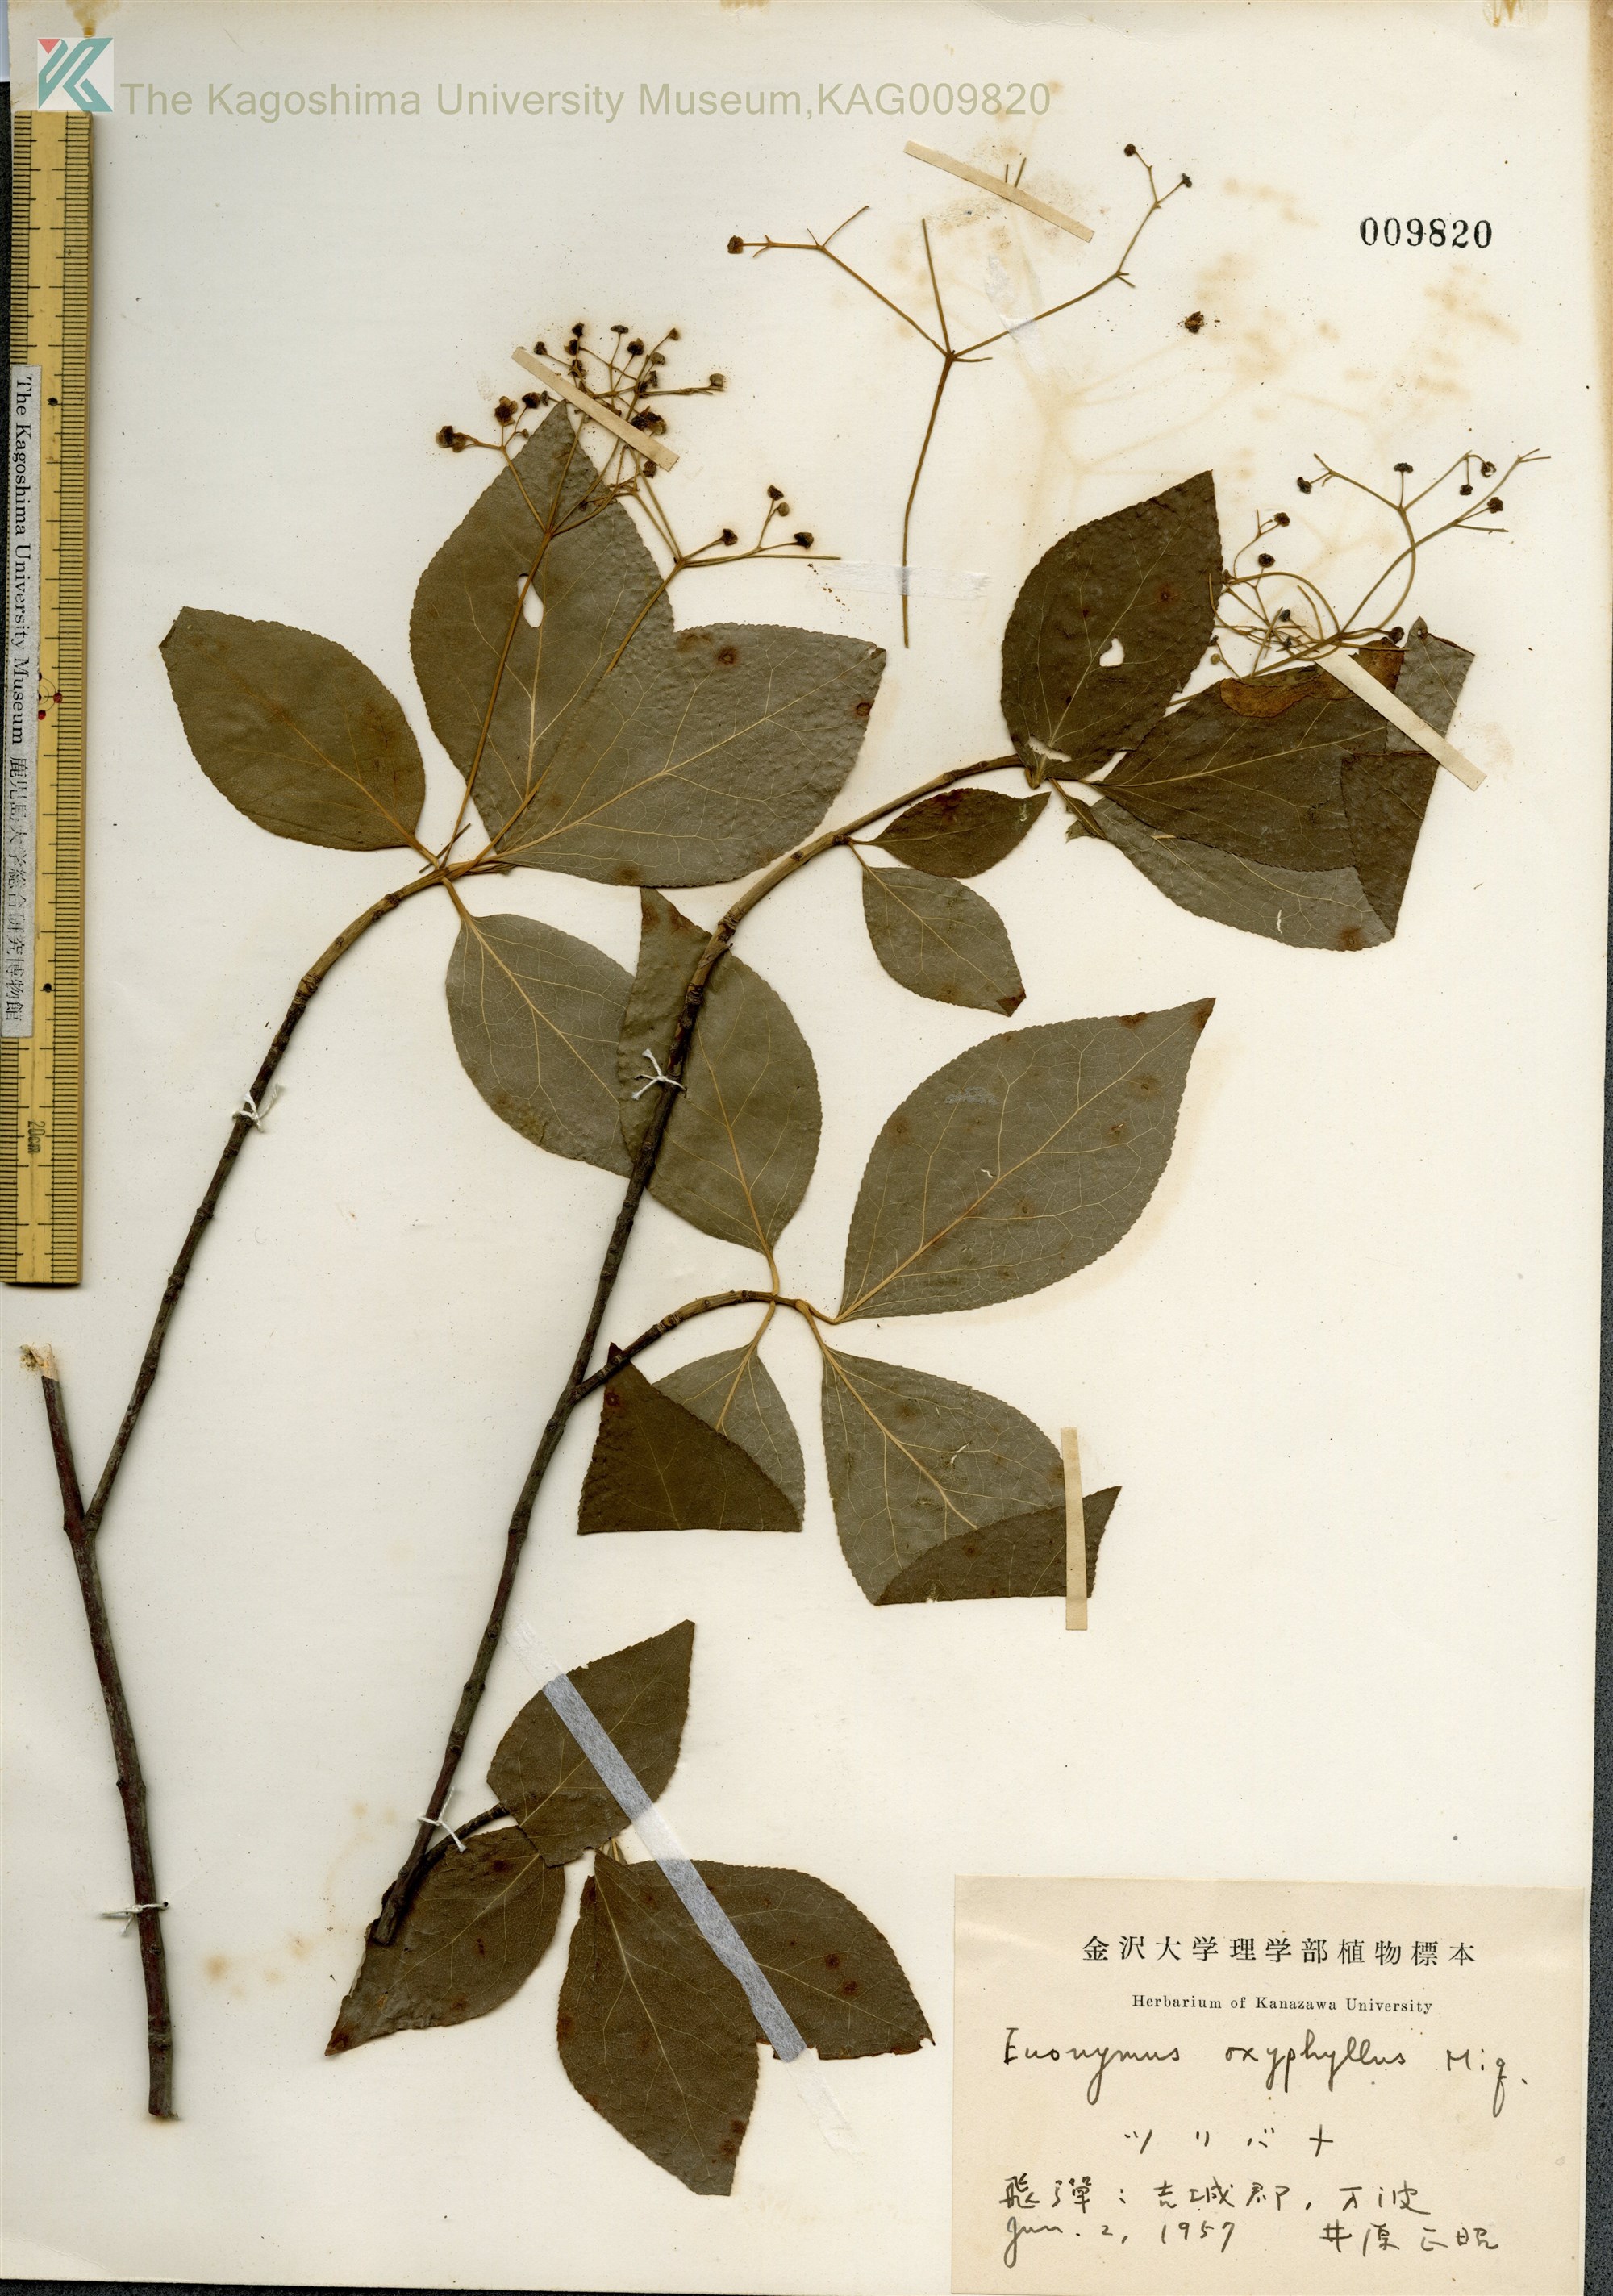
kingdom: Plantae
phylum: Tracheophyta
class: Magnoliopsida
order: Celastrales
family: Celastraceae
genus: Euonymus
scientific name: Euonymus oxyphyllus
